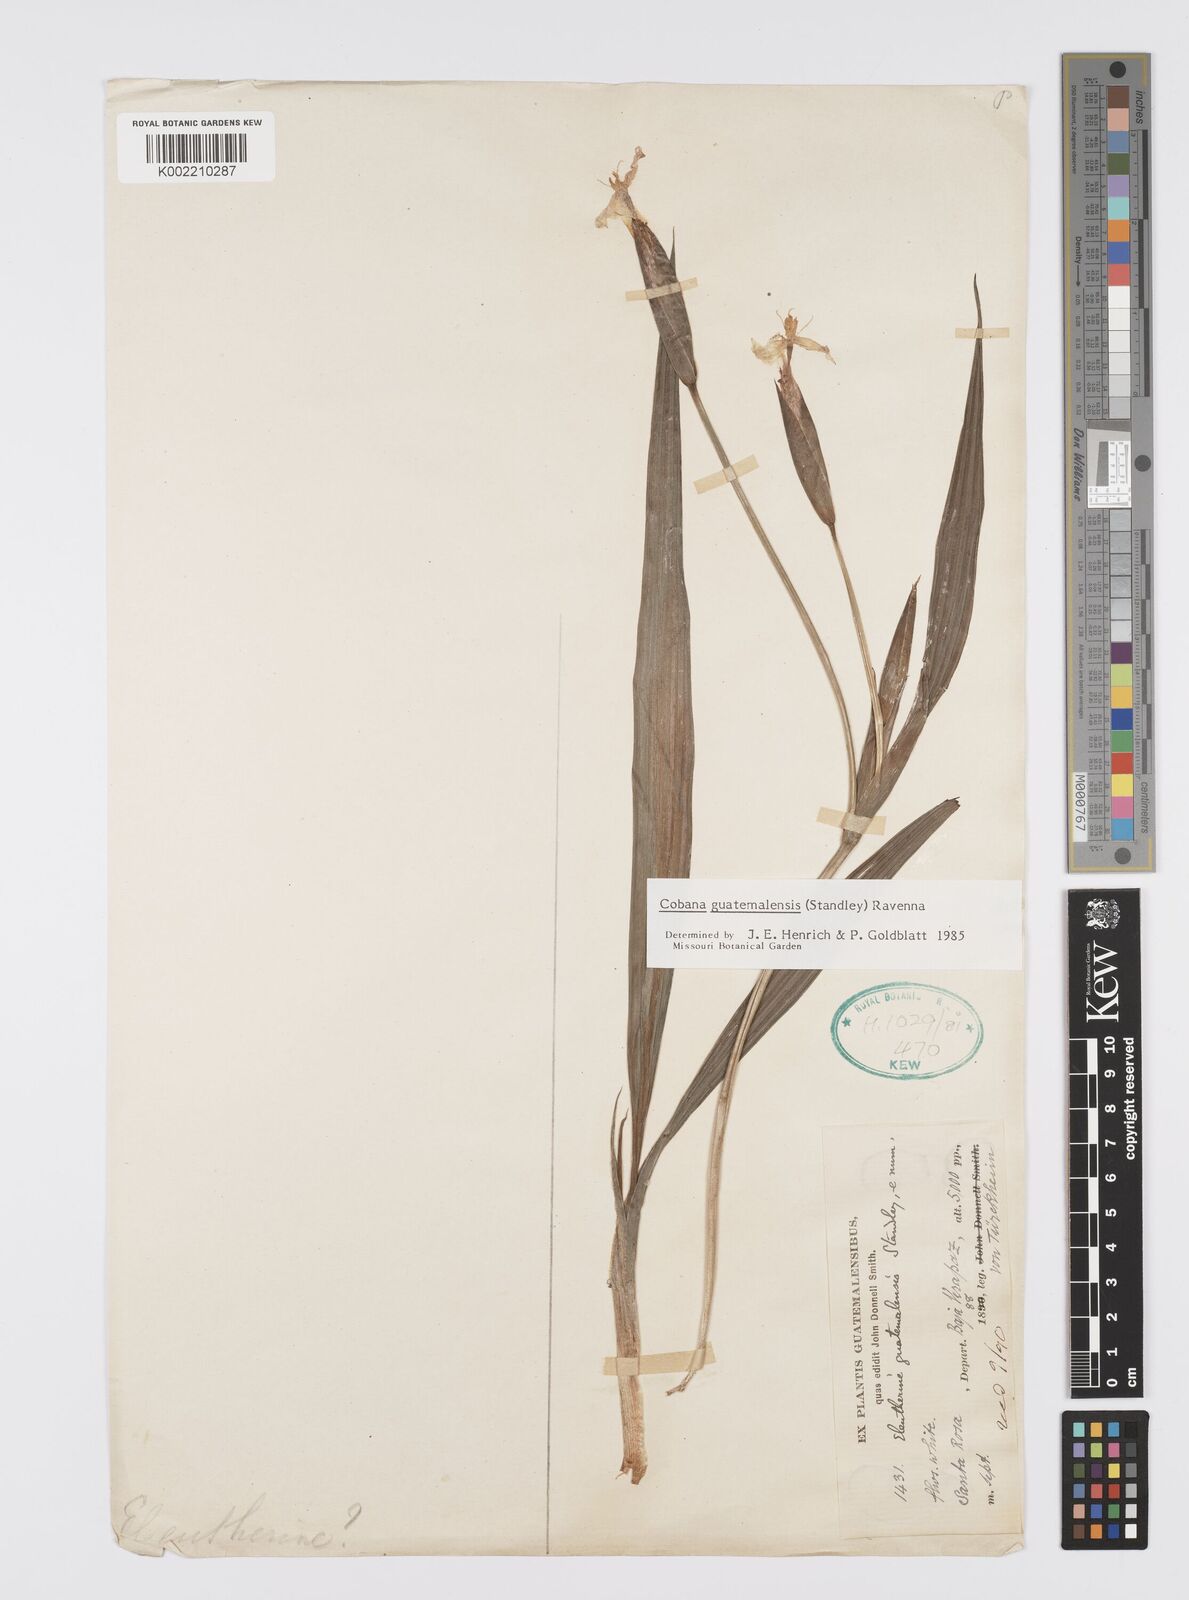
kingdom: Plantae
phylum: Tracheophyta
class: Liliopsida
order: Asparagales
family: Iridaceae
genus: Cobana
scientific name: Cobana guatemalensis
